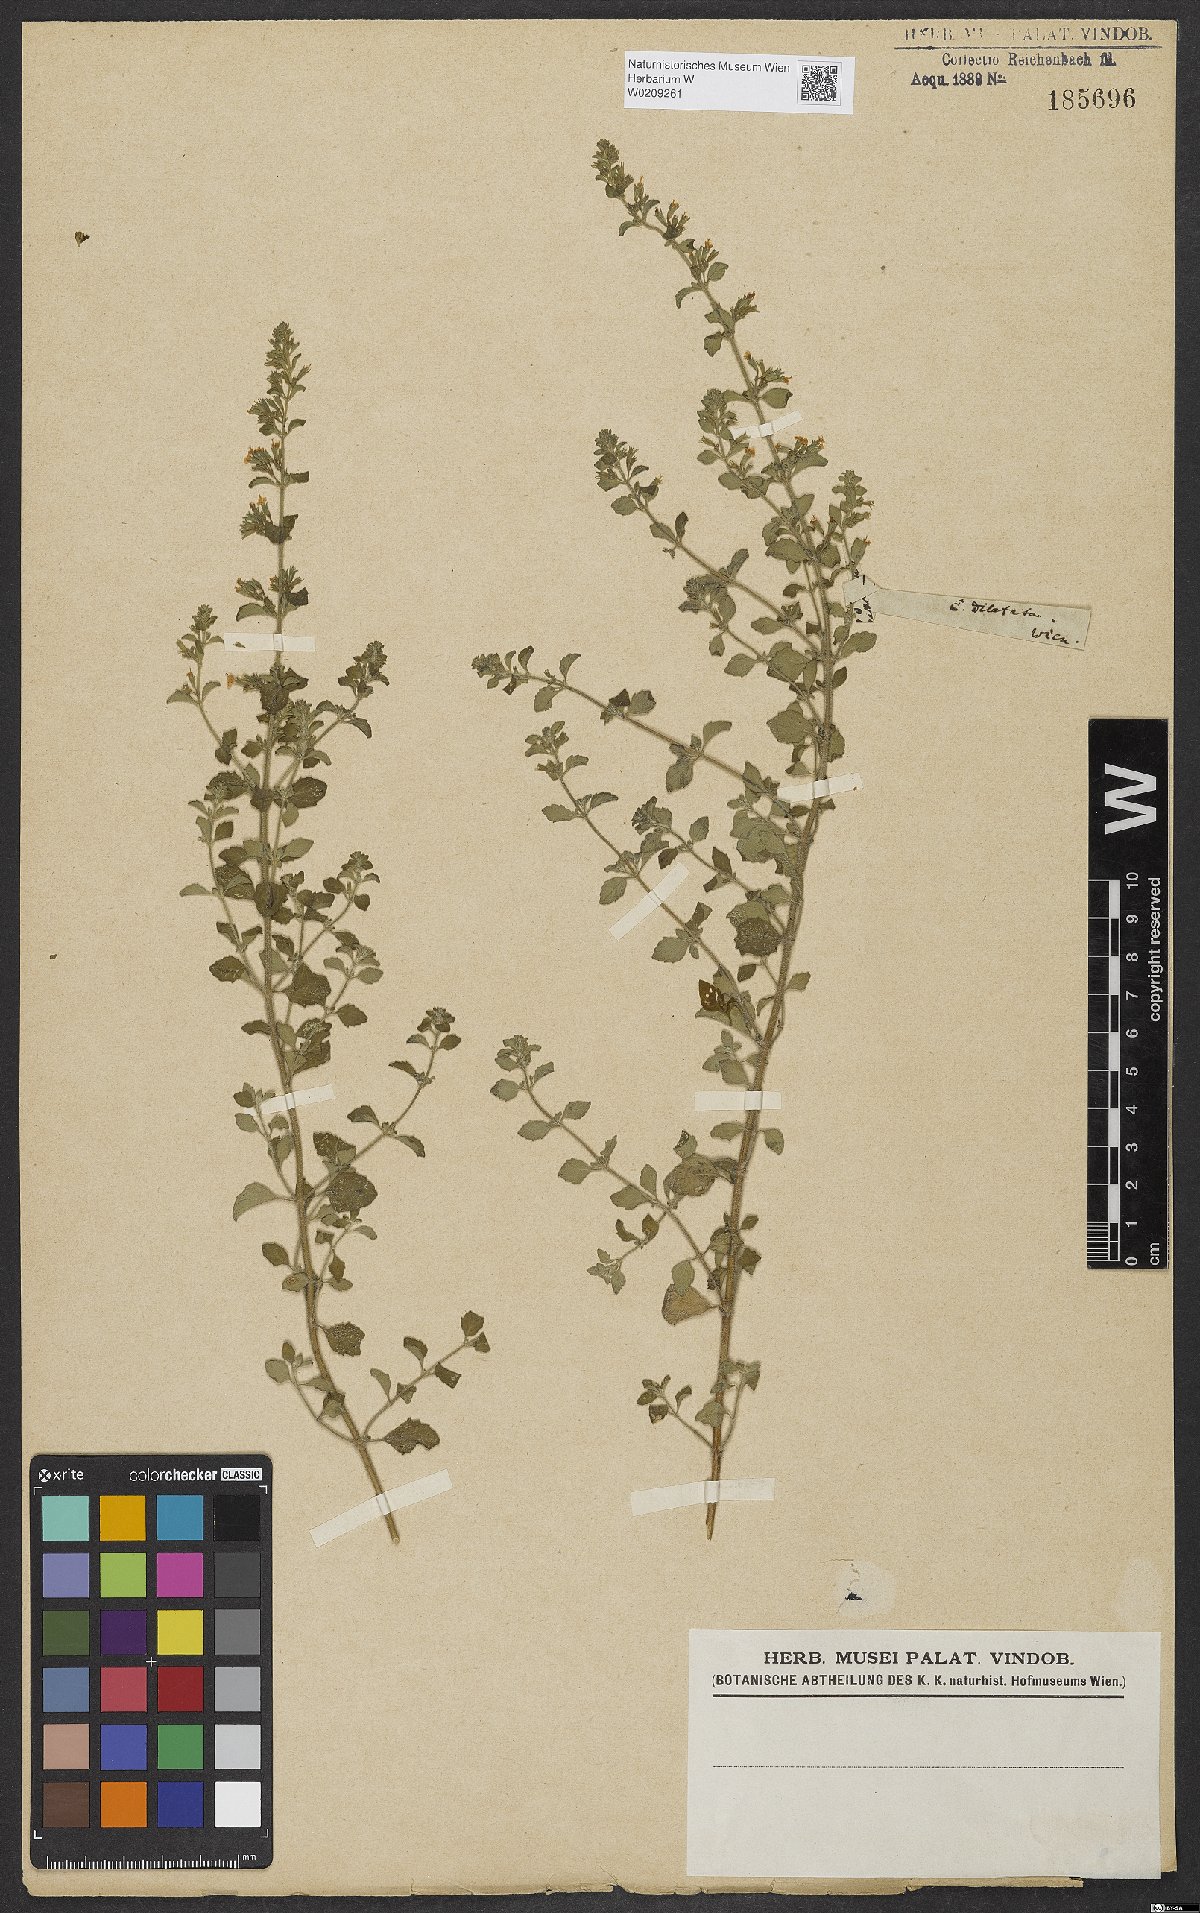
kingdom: Plantae
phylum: Tracheophyta
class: Magnoliopsida
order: Lamiales
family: Lamiaceae
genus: Clinopodium
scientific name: Clinopodium nepeta
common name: Lesser calamint
